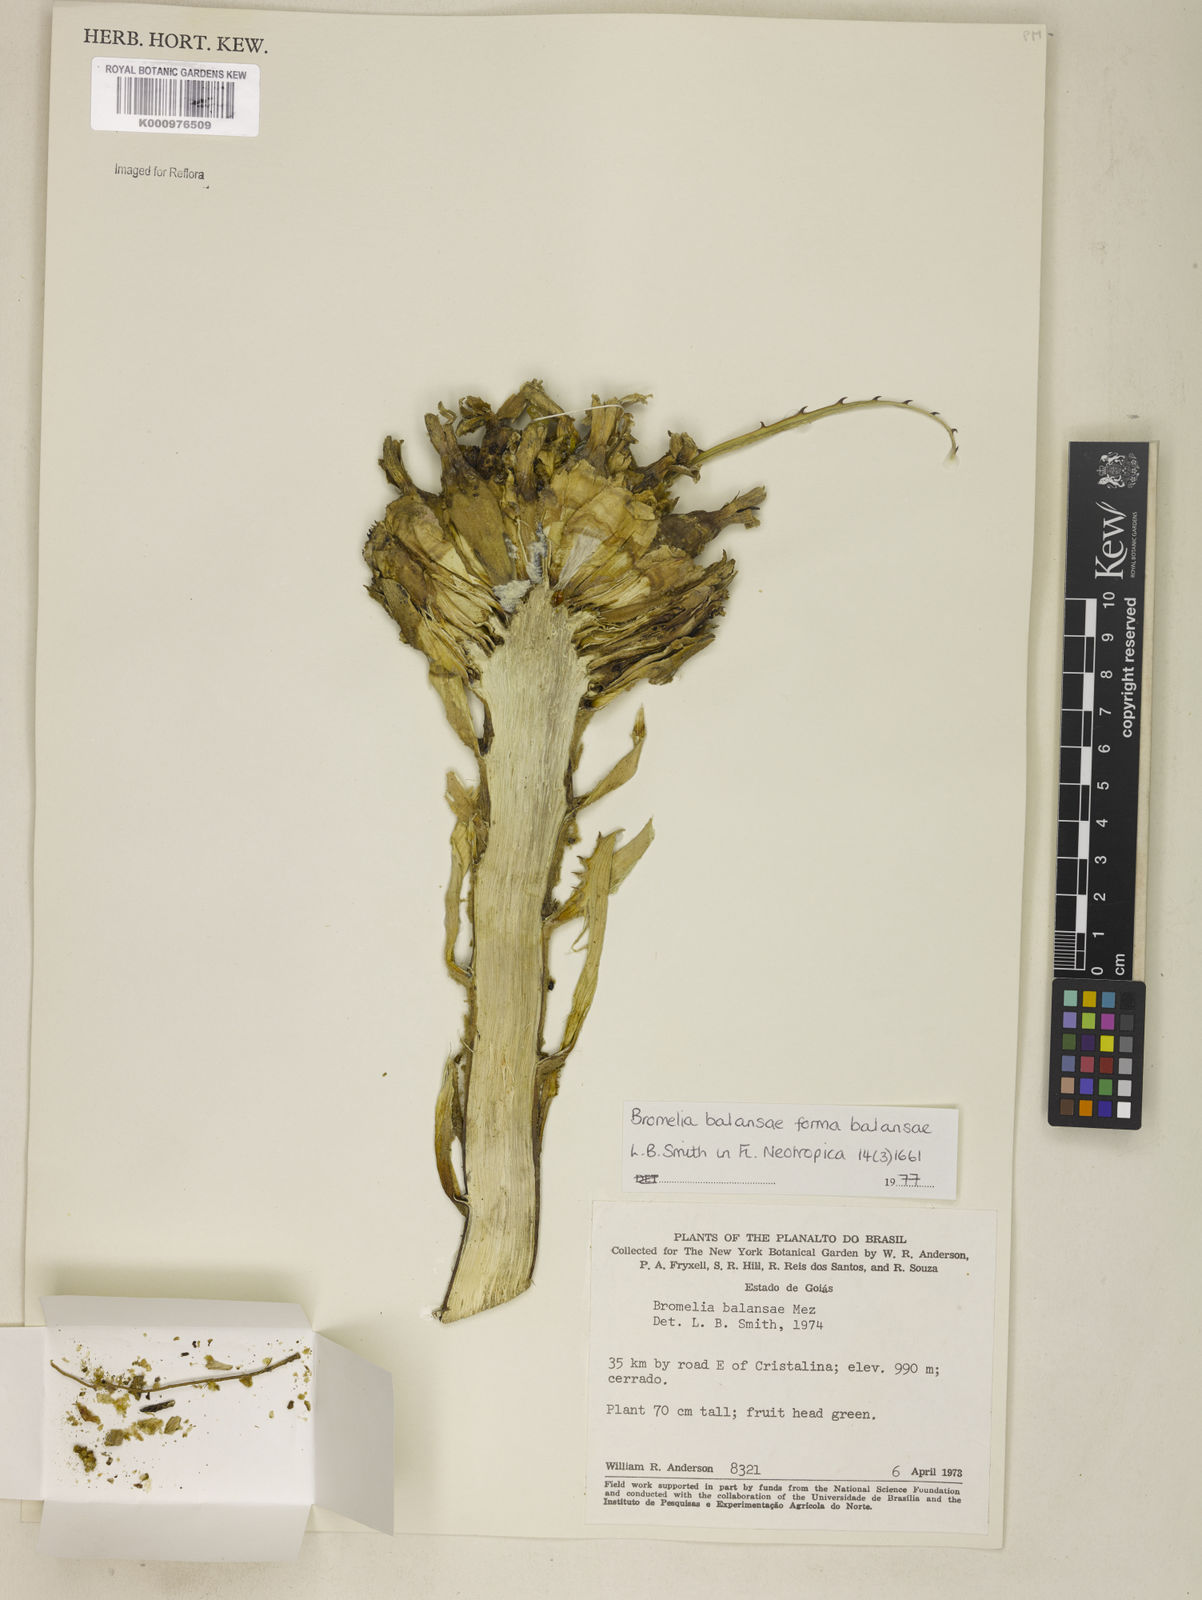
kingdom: Plantae
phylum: Tracheophyta
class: Liliopsida
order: Poales
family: Bromeliaceae
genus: Bromelia
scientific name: Bromelia balansae
